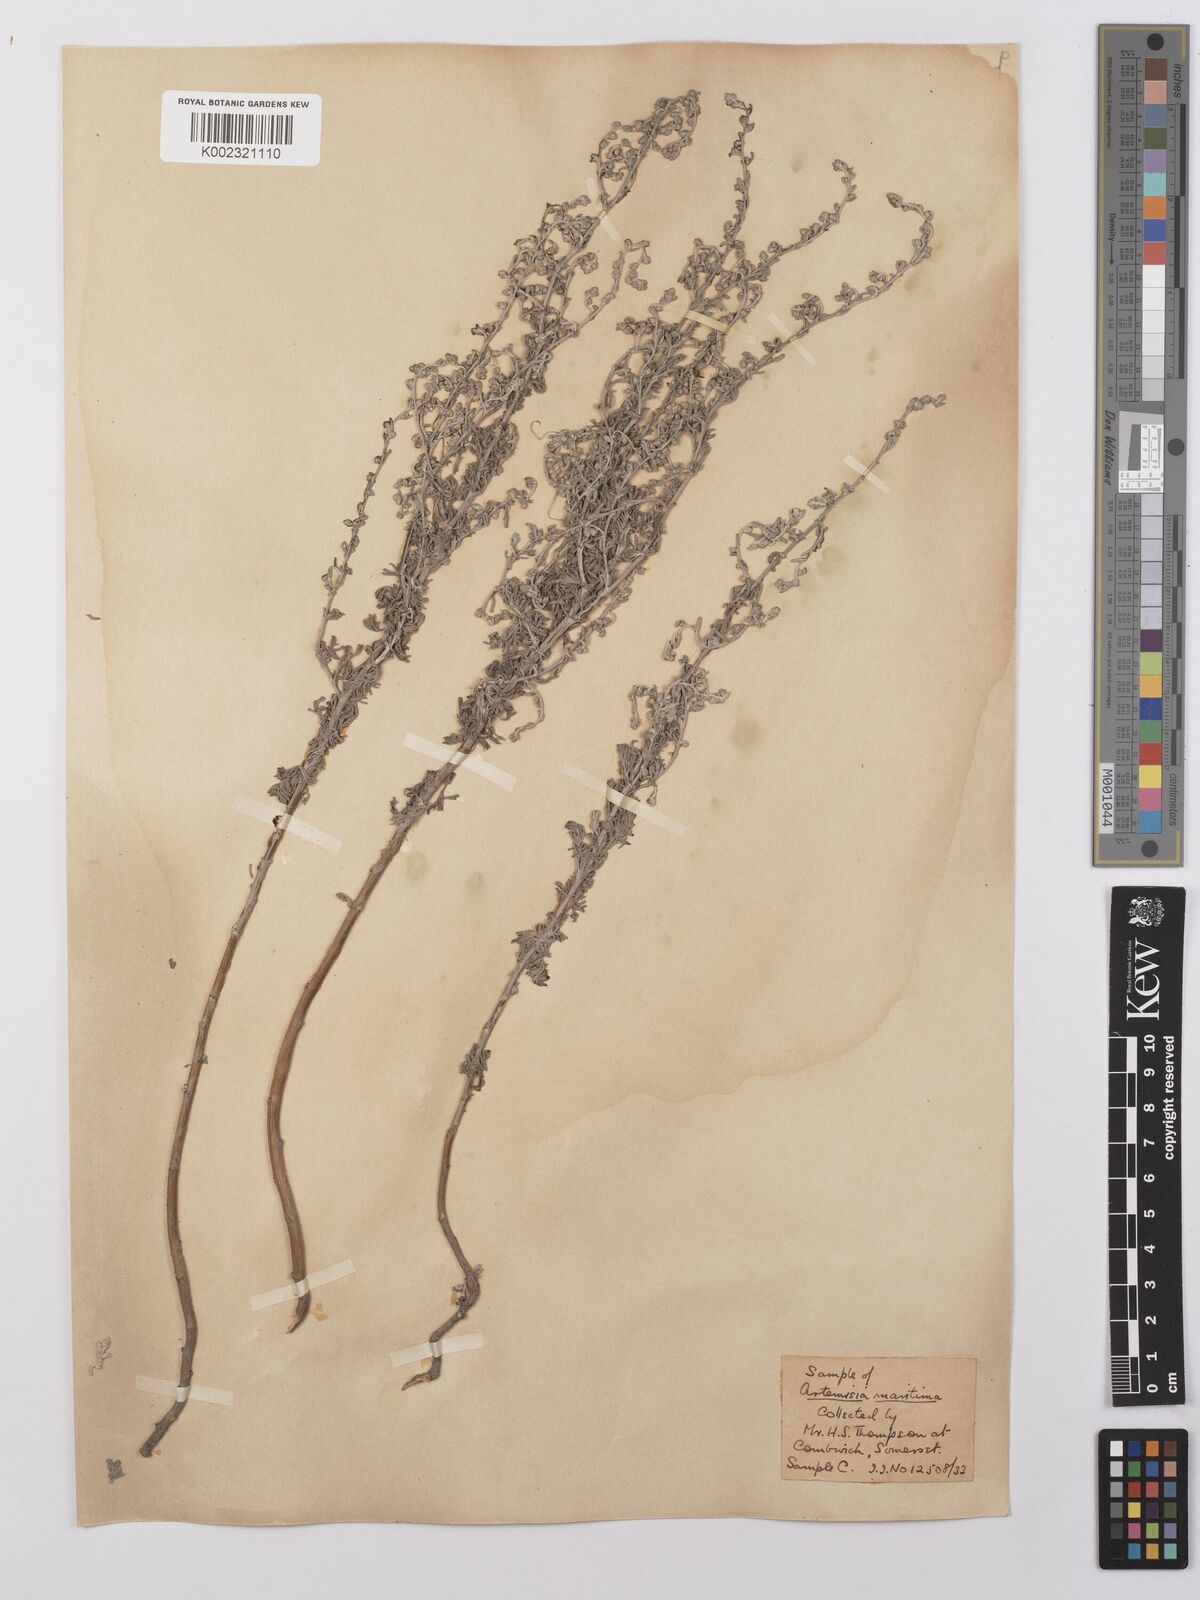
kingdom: Plantae
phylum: Tracheophyta
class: Magnoliopsida
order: Asterales
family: Asteraceae
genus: Artemisia
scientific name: Artemisia maritima
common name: Wormseed
